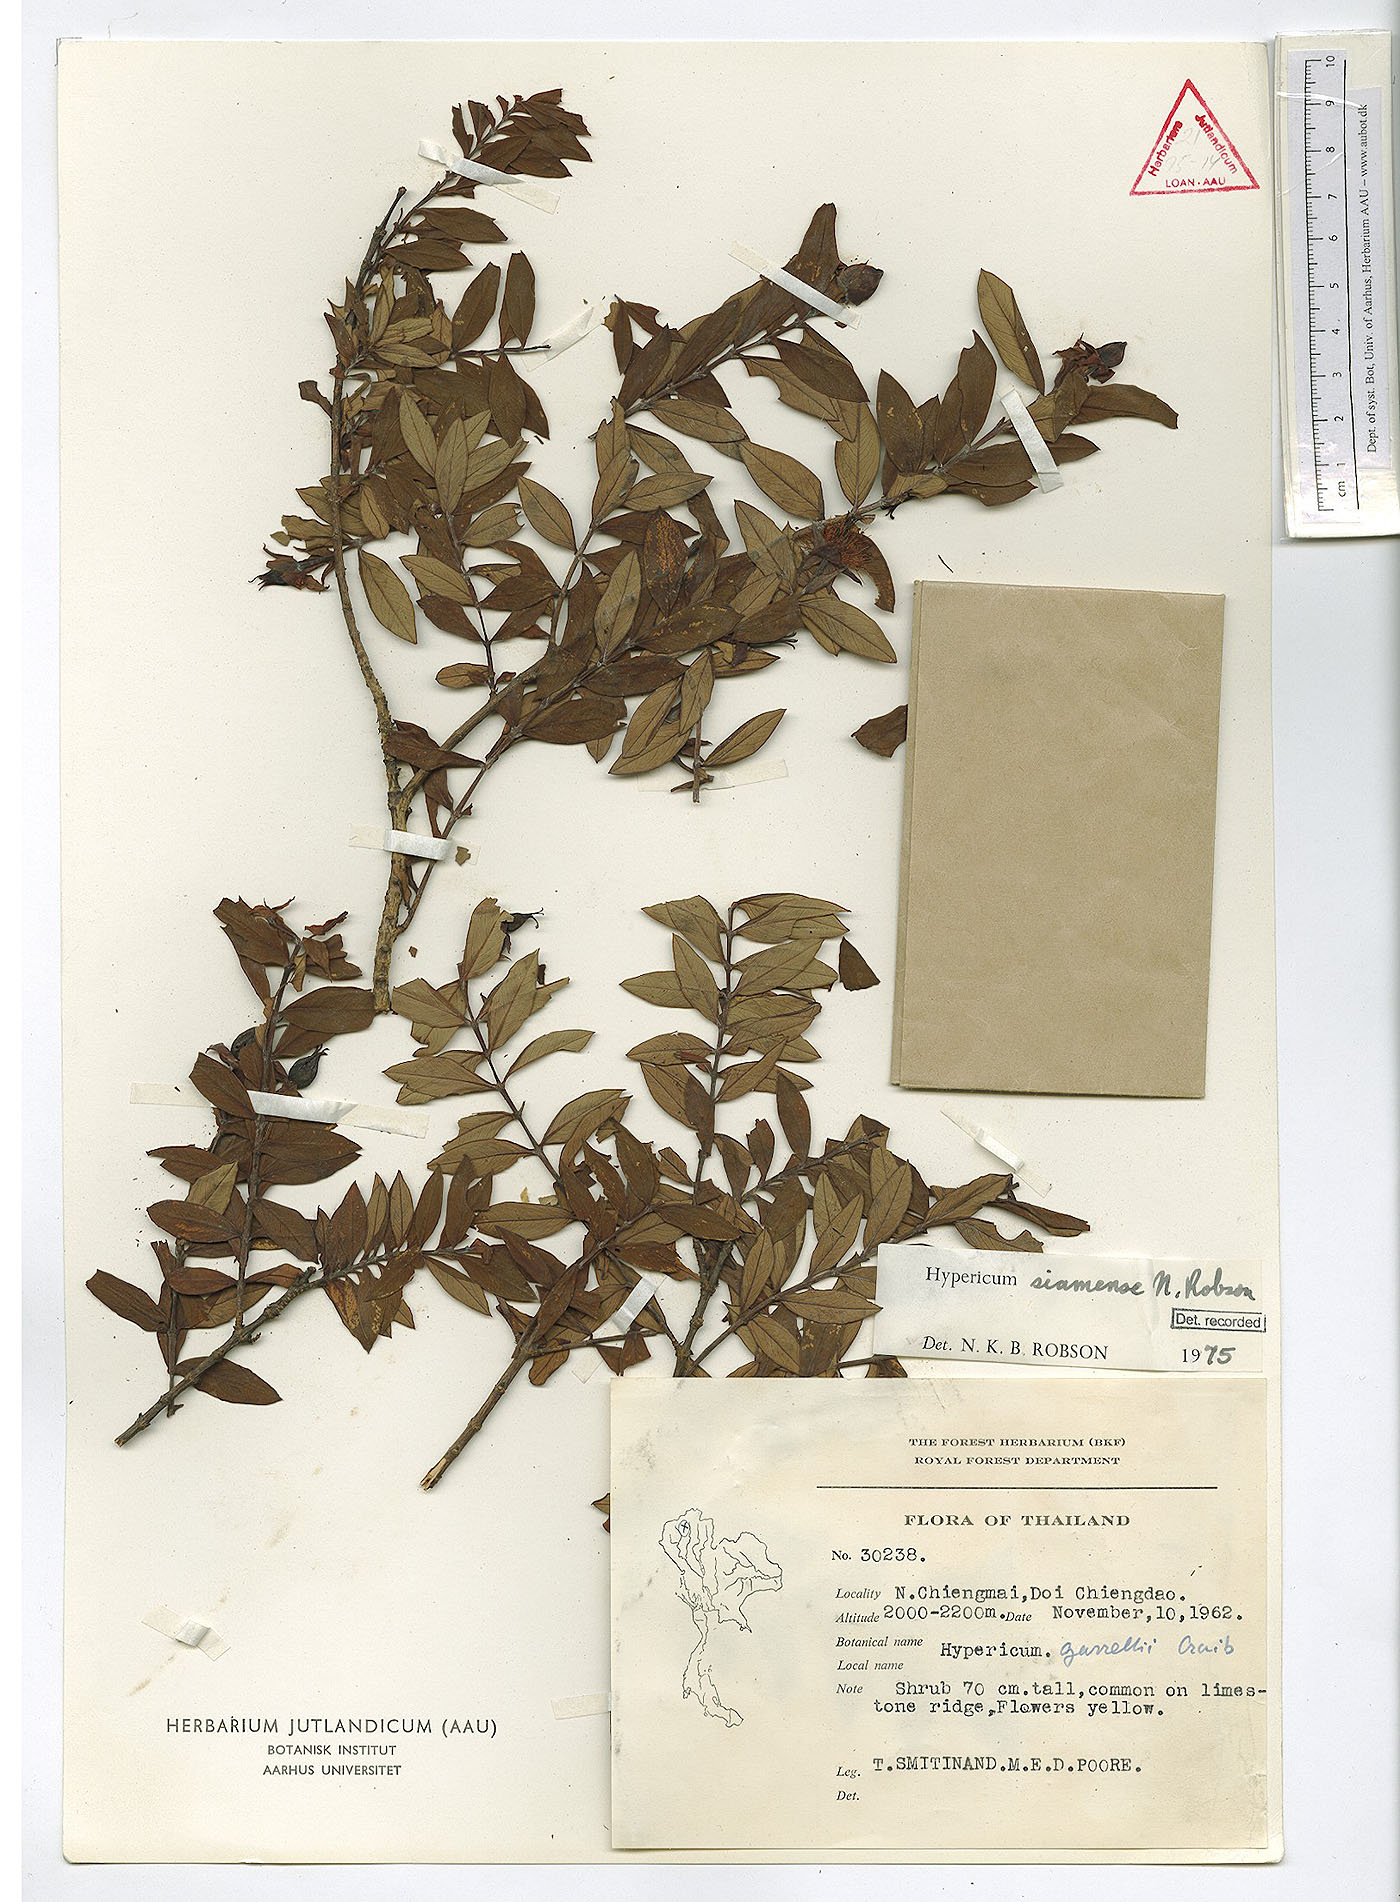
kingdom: Plantae
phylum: Tracheophyta
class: Magnoliopsida
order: Malpighiales
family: Hypericaceae
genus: Hypericum
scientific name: Hypericum siamense
